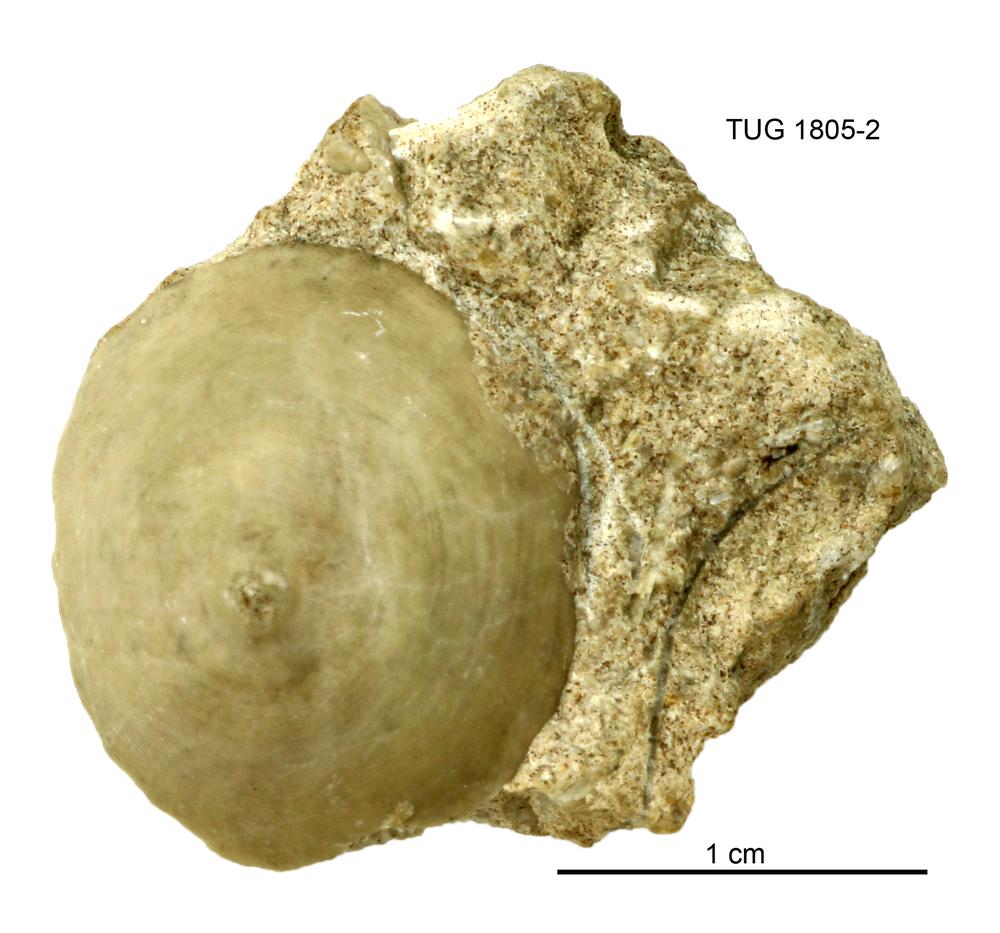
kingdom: Animalia
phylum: Mollusca
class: Monoplacophora
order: Kirengellida
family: Hypseloconidae
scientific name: Hypseloconidae
